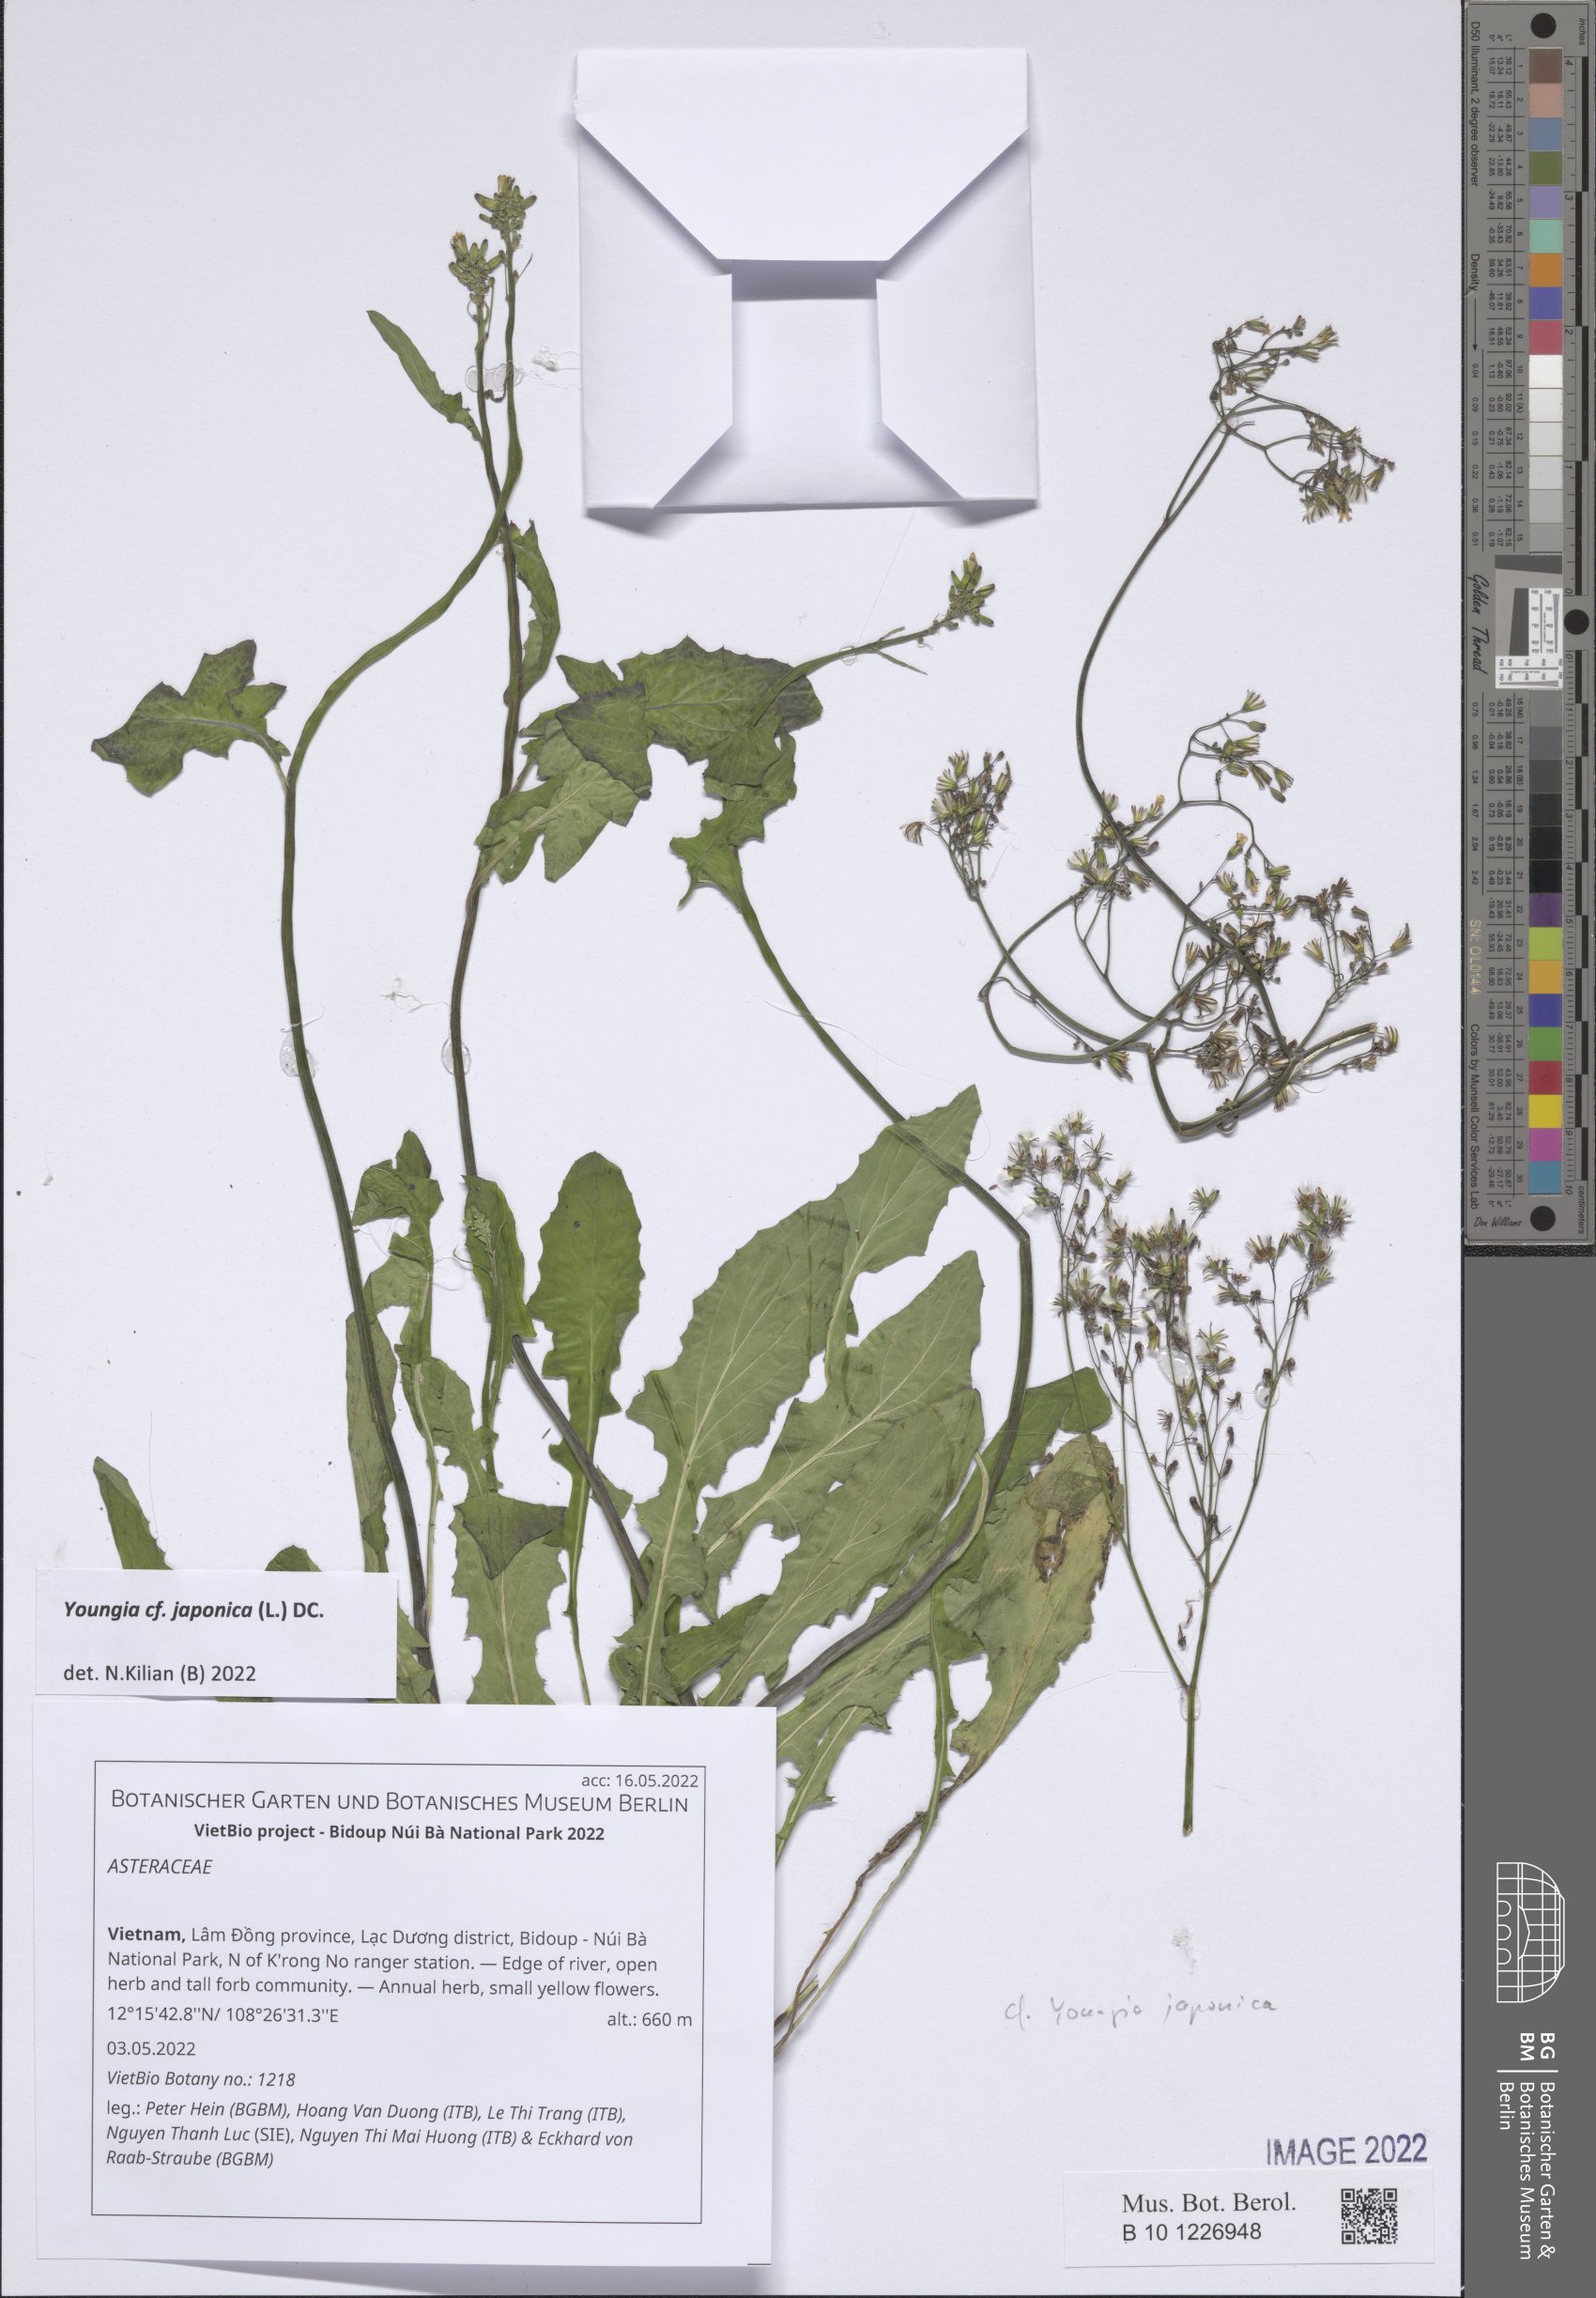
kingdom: Plantae
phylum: Tracheophyta
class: Magnoliopsida
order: Asterales
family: Asteraceae
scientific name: Asteraceae
